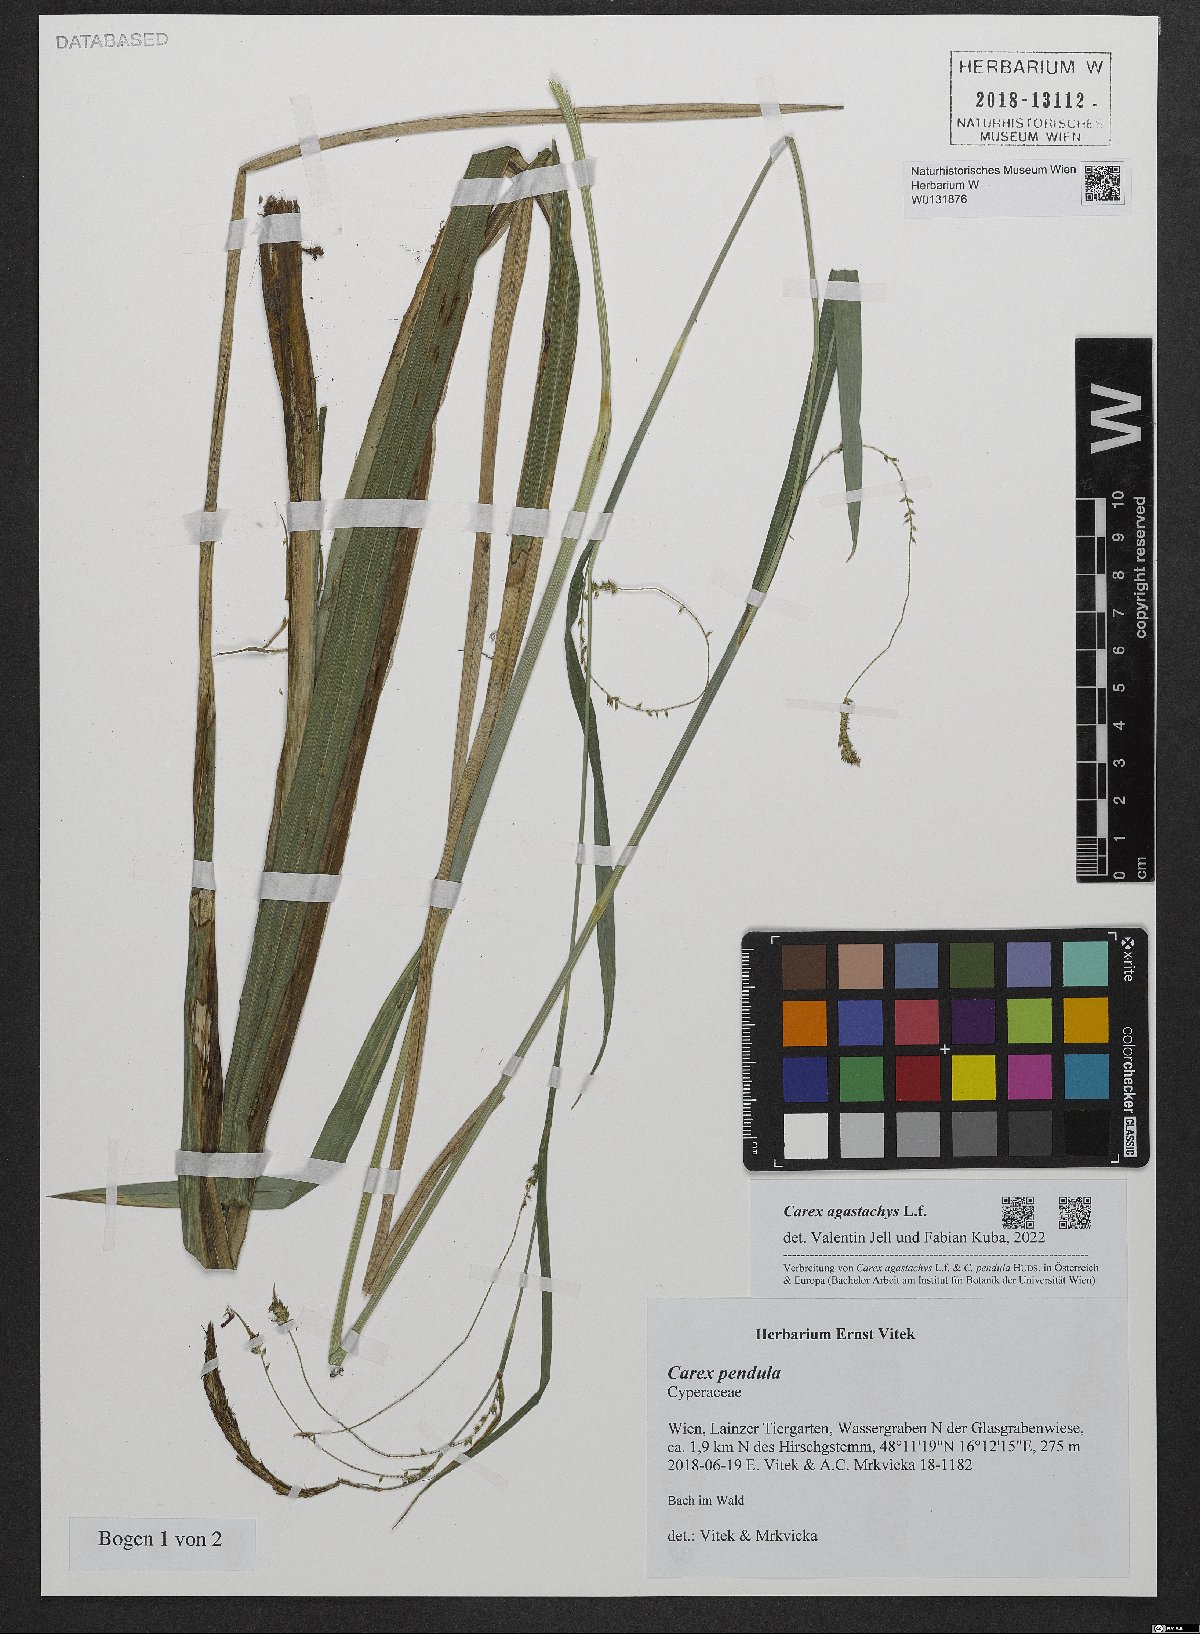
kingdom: Plantae
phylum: Tracheophyta
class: Liliopsida
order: Poales
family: Cyperaceae
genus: Carex
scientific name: Carex agastachys
